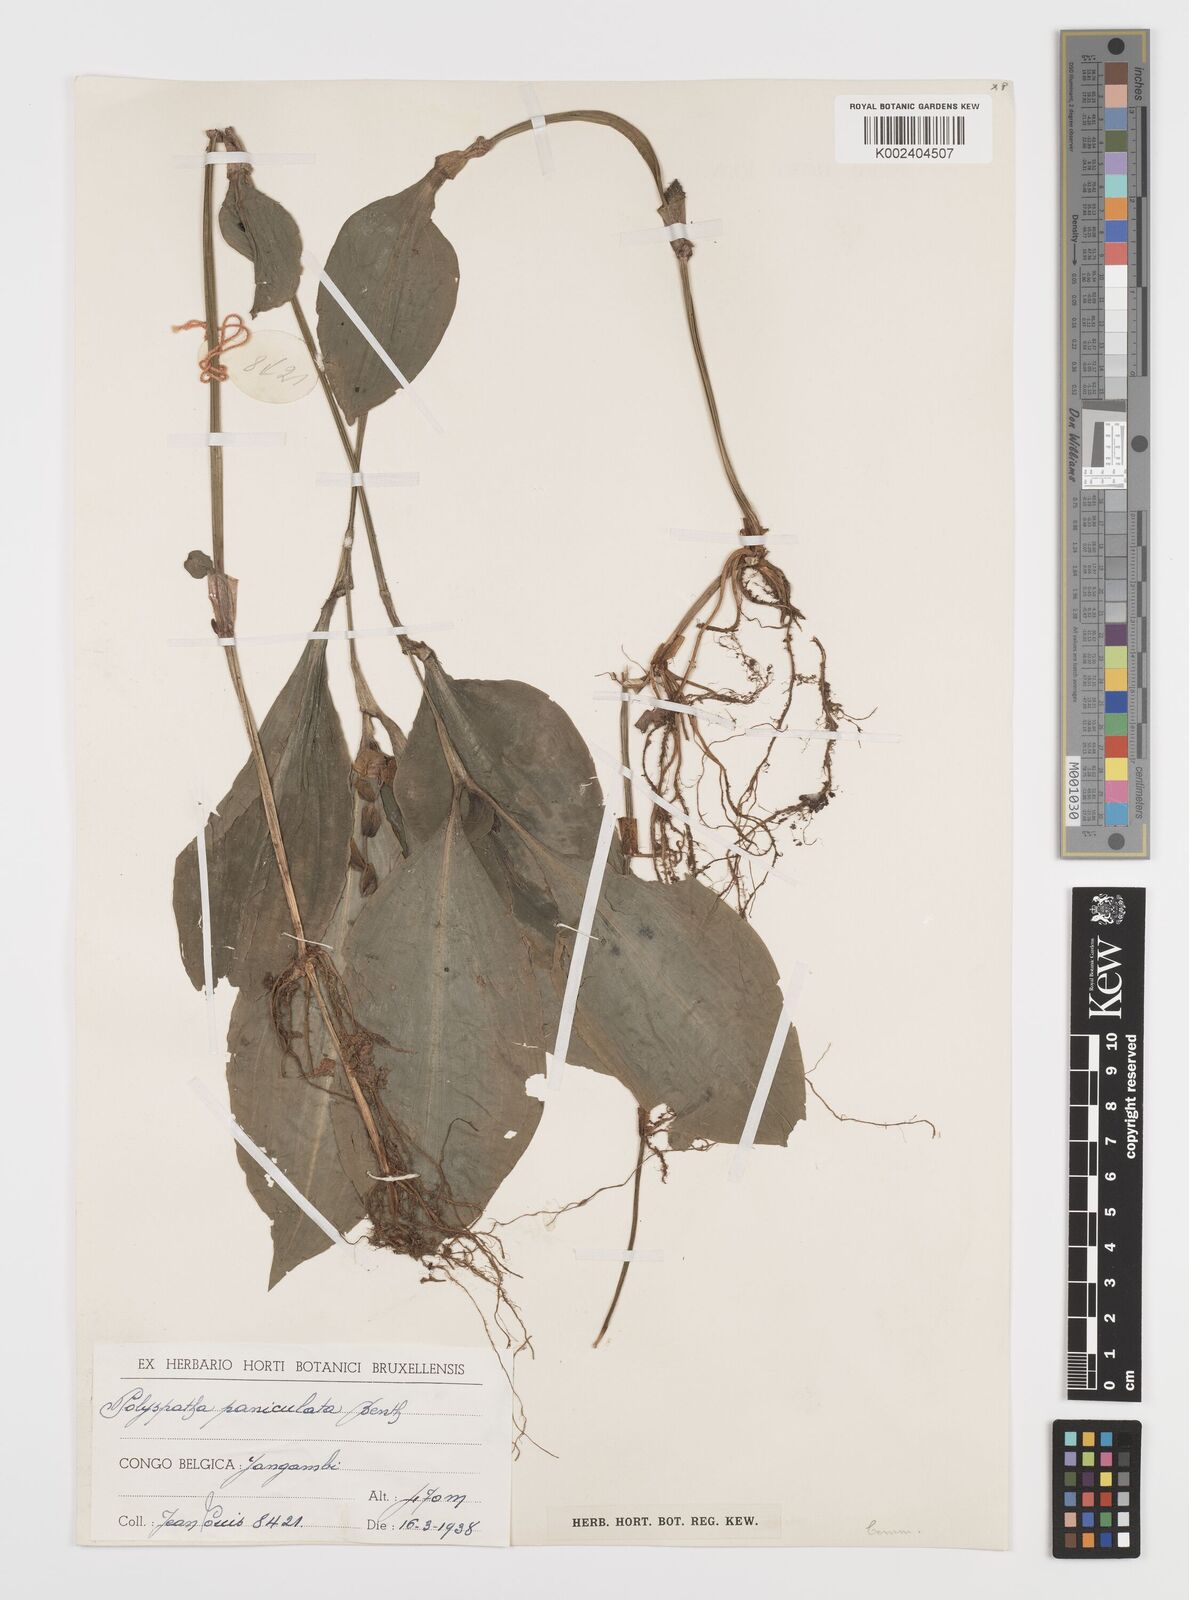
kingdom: Plantae
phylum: Tracheophyta
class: Liliopsida
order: Commelinales
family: Commelinaceae
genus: Polyspatha
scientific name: Polyspatha paniculata
